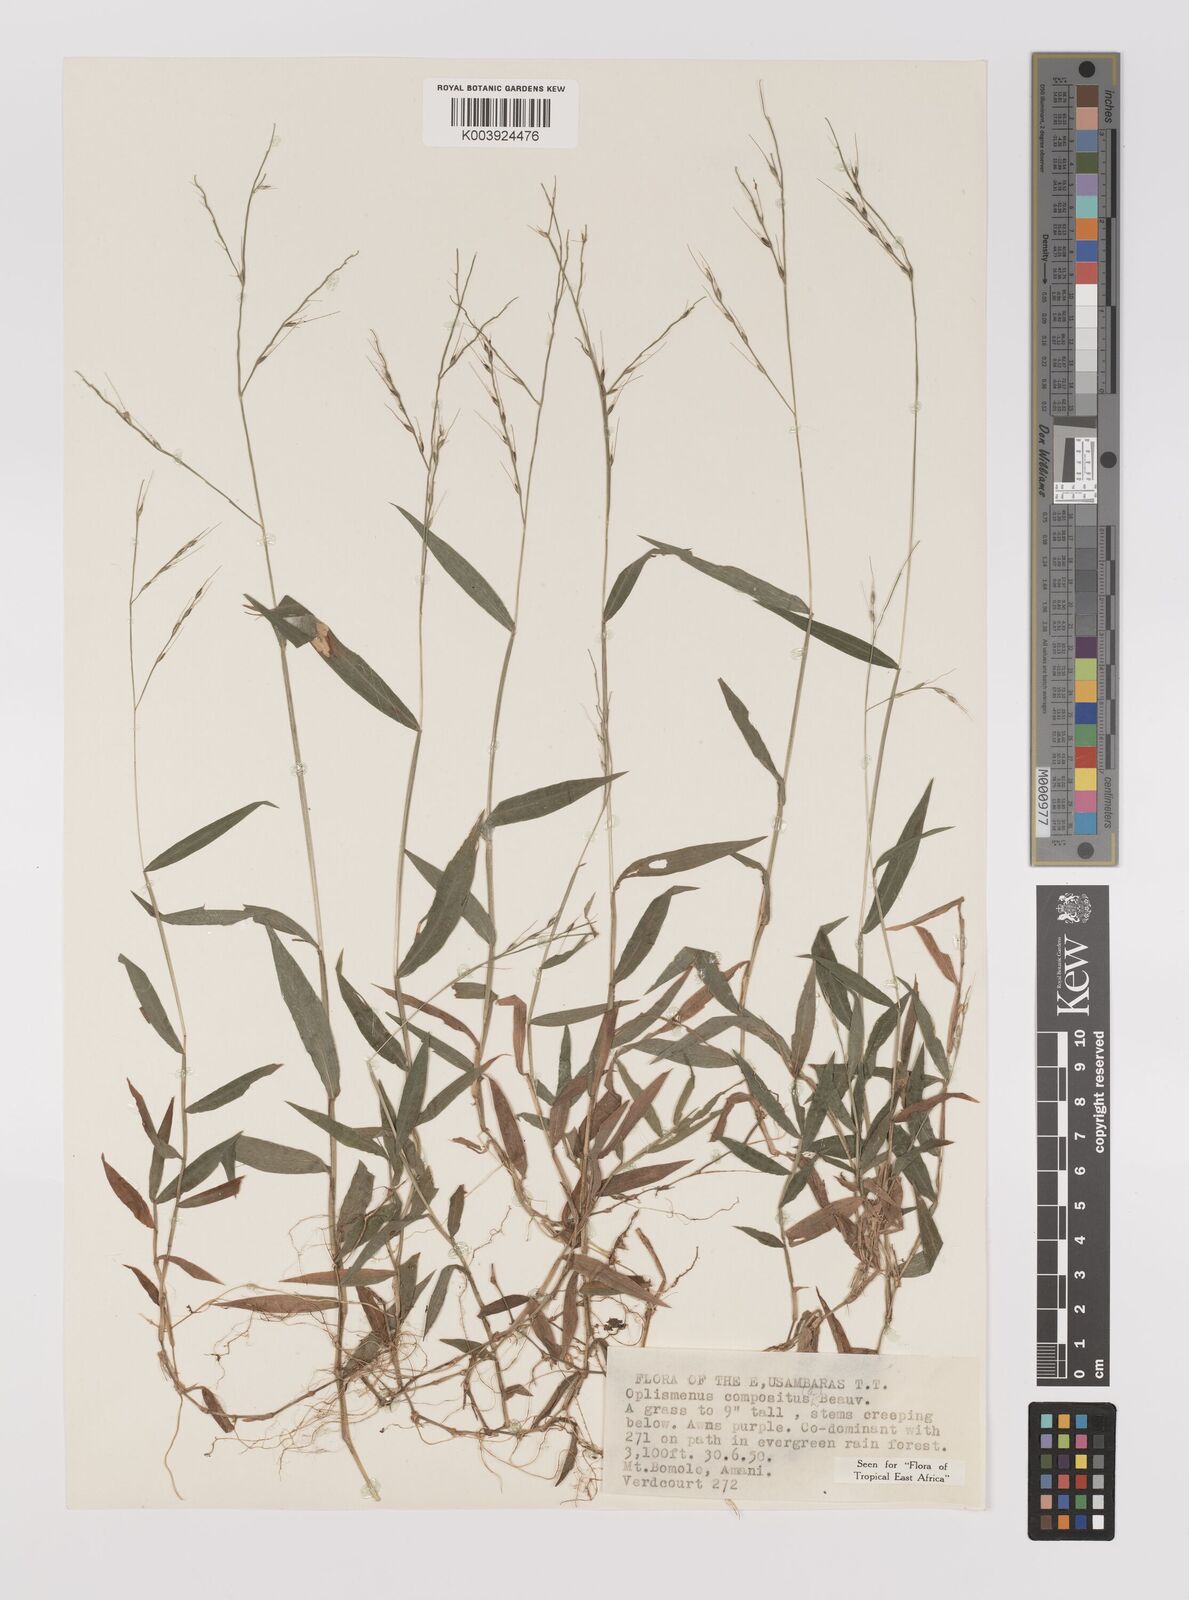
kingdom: Plantae
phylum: Tracheophyta
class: Liliopsida
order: Poales
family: Poaceae
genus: Oplismenus
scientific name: Oplismenus compositus
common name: Running mountain grass
